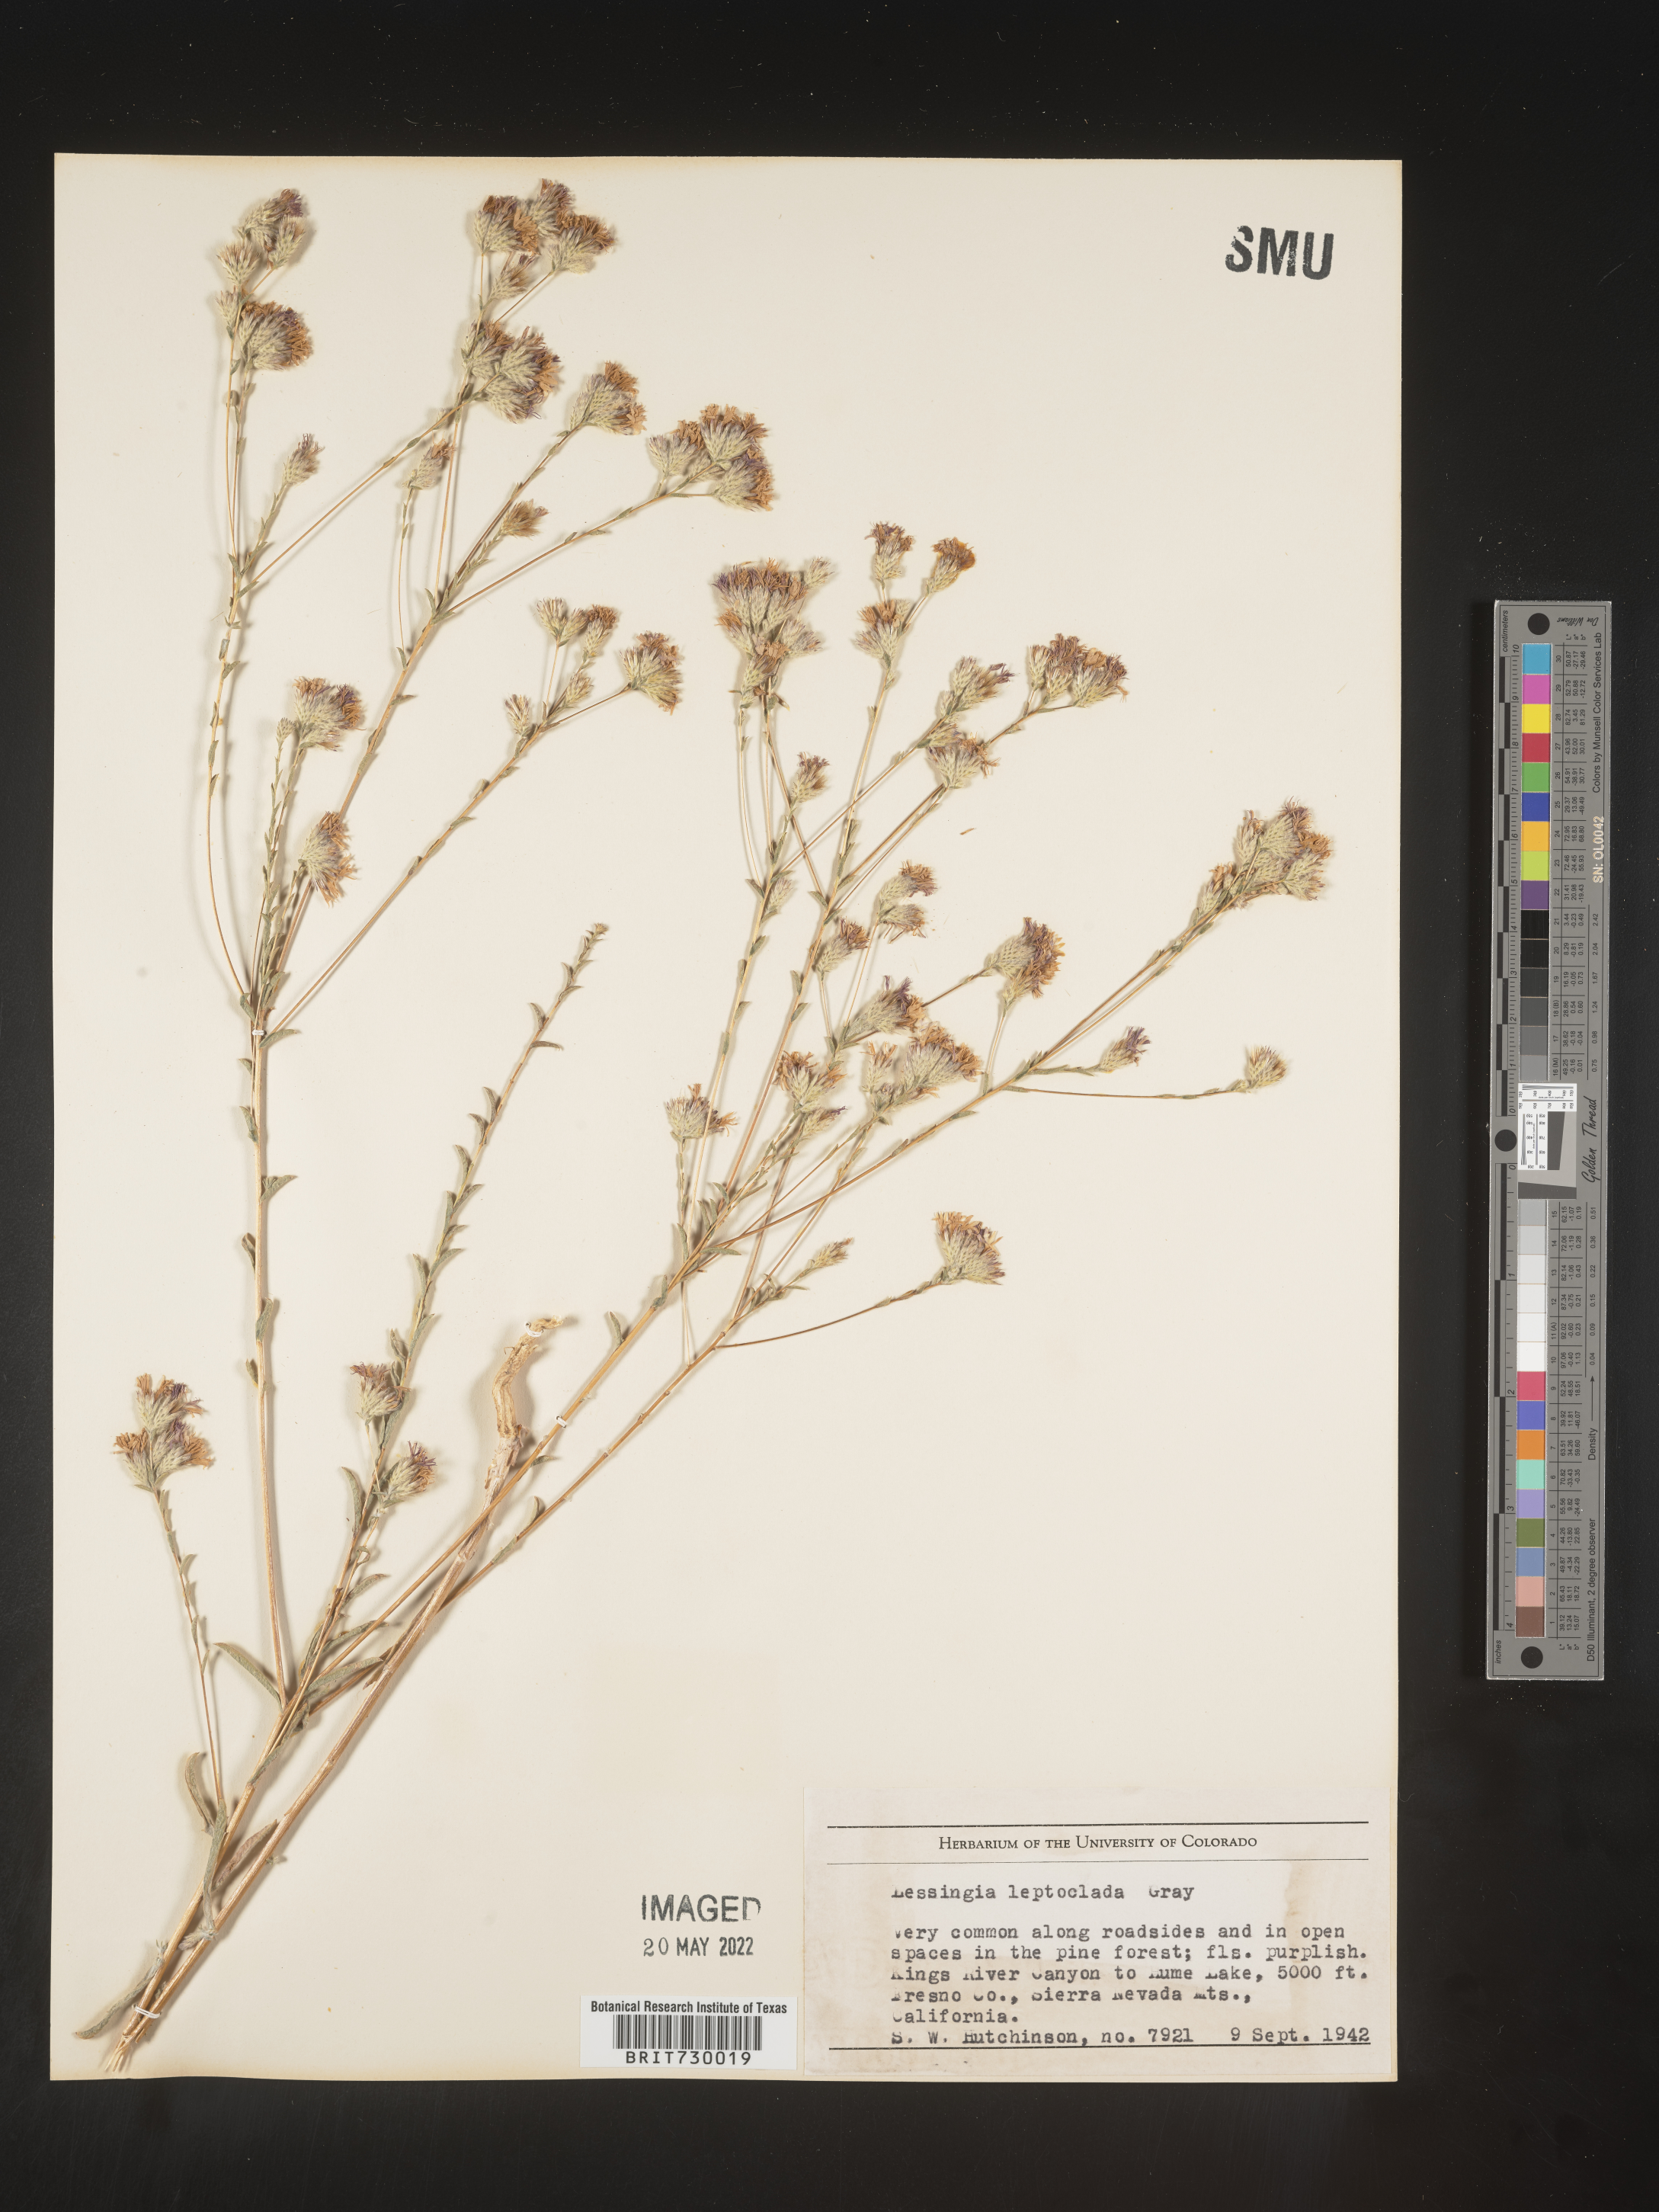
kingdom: Plantae
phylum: Tracheophyta
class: Magnoliopsida
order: Asterales
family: Asteraceae
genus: Lessingia
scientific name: Lessingia
